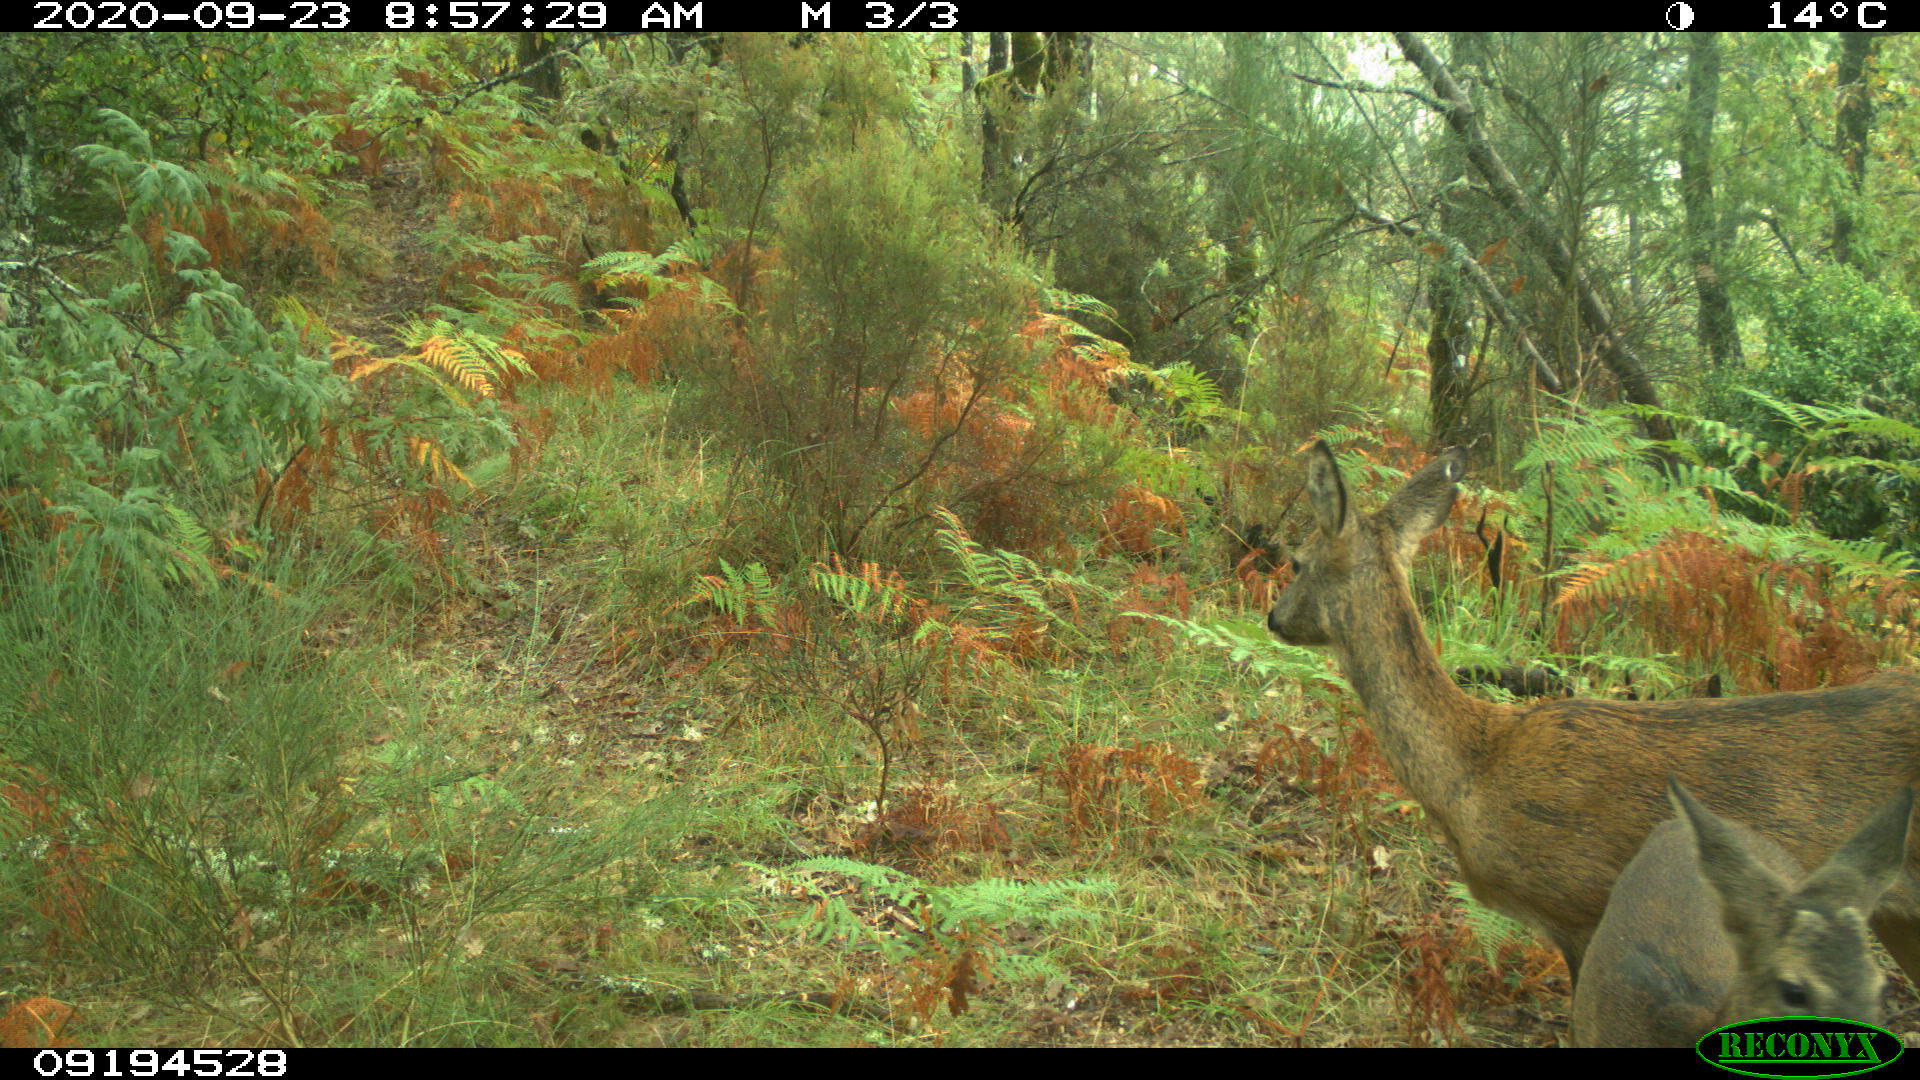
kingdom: Animalia
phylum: Chordata
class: Mammalia
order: Artiodactyla
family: Cervidae
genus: Capreolus
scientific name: Capreolus capreolus
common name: Western roe deer
